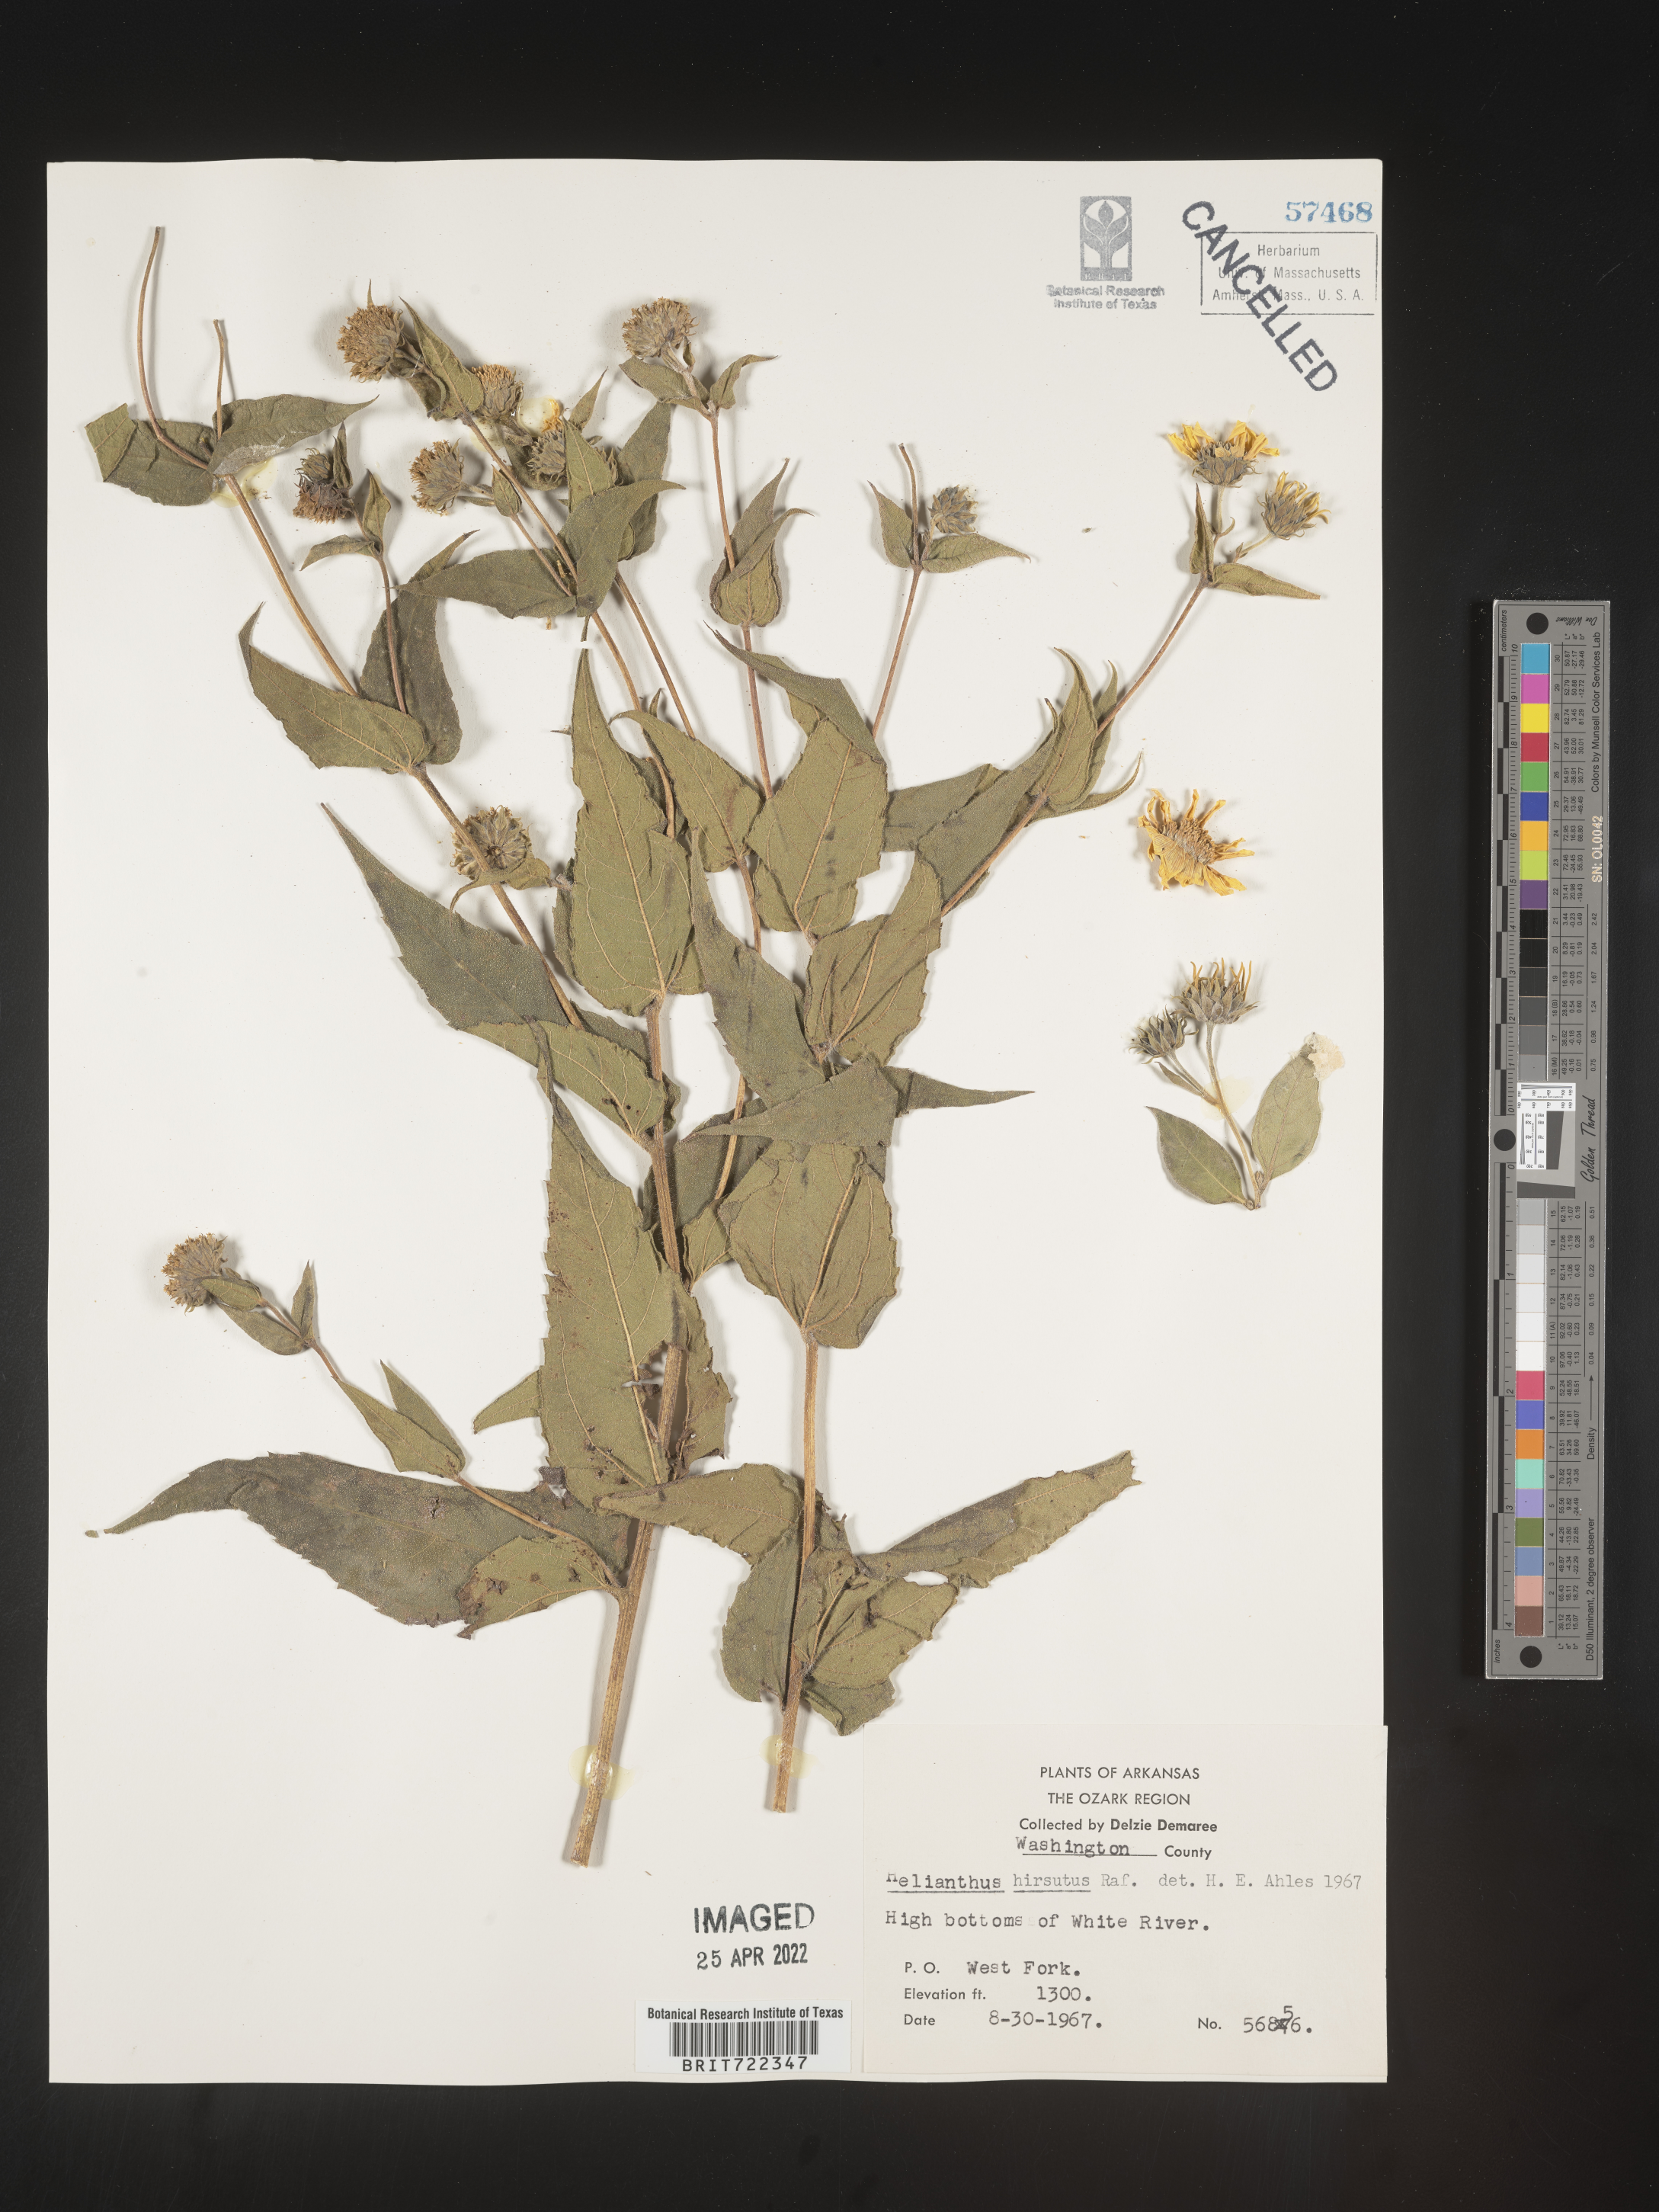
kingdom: Plantae
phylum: Tracheophyta
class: Magnoliopsida
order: Asterales
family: Asteraceae
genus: Helianthus
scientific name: Helianthus hirsutus
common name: Hairy sunflower
